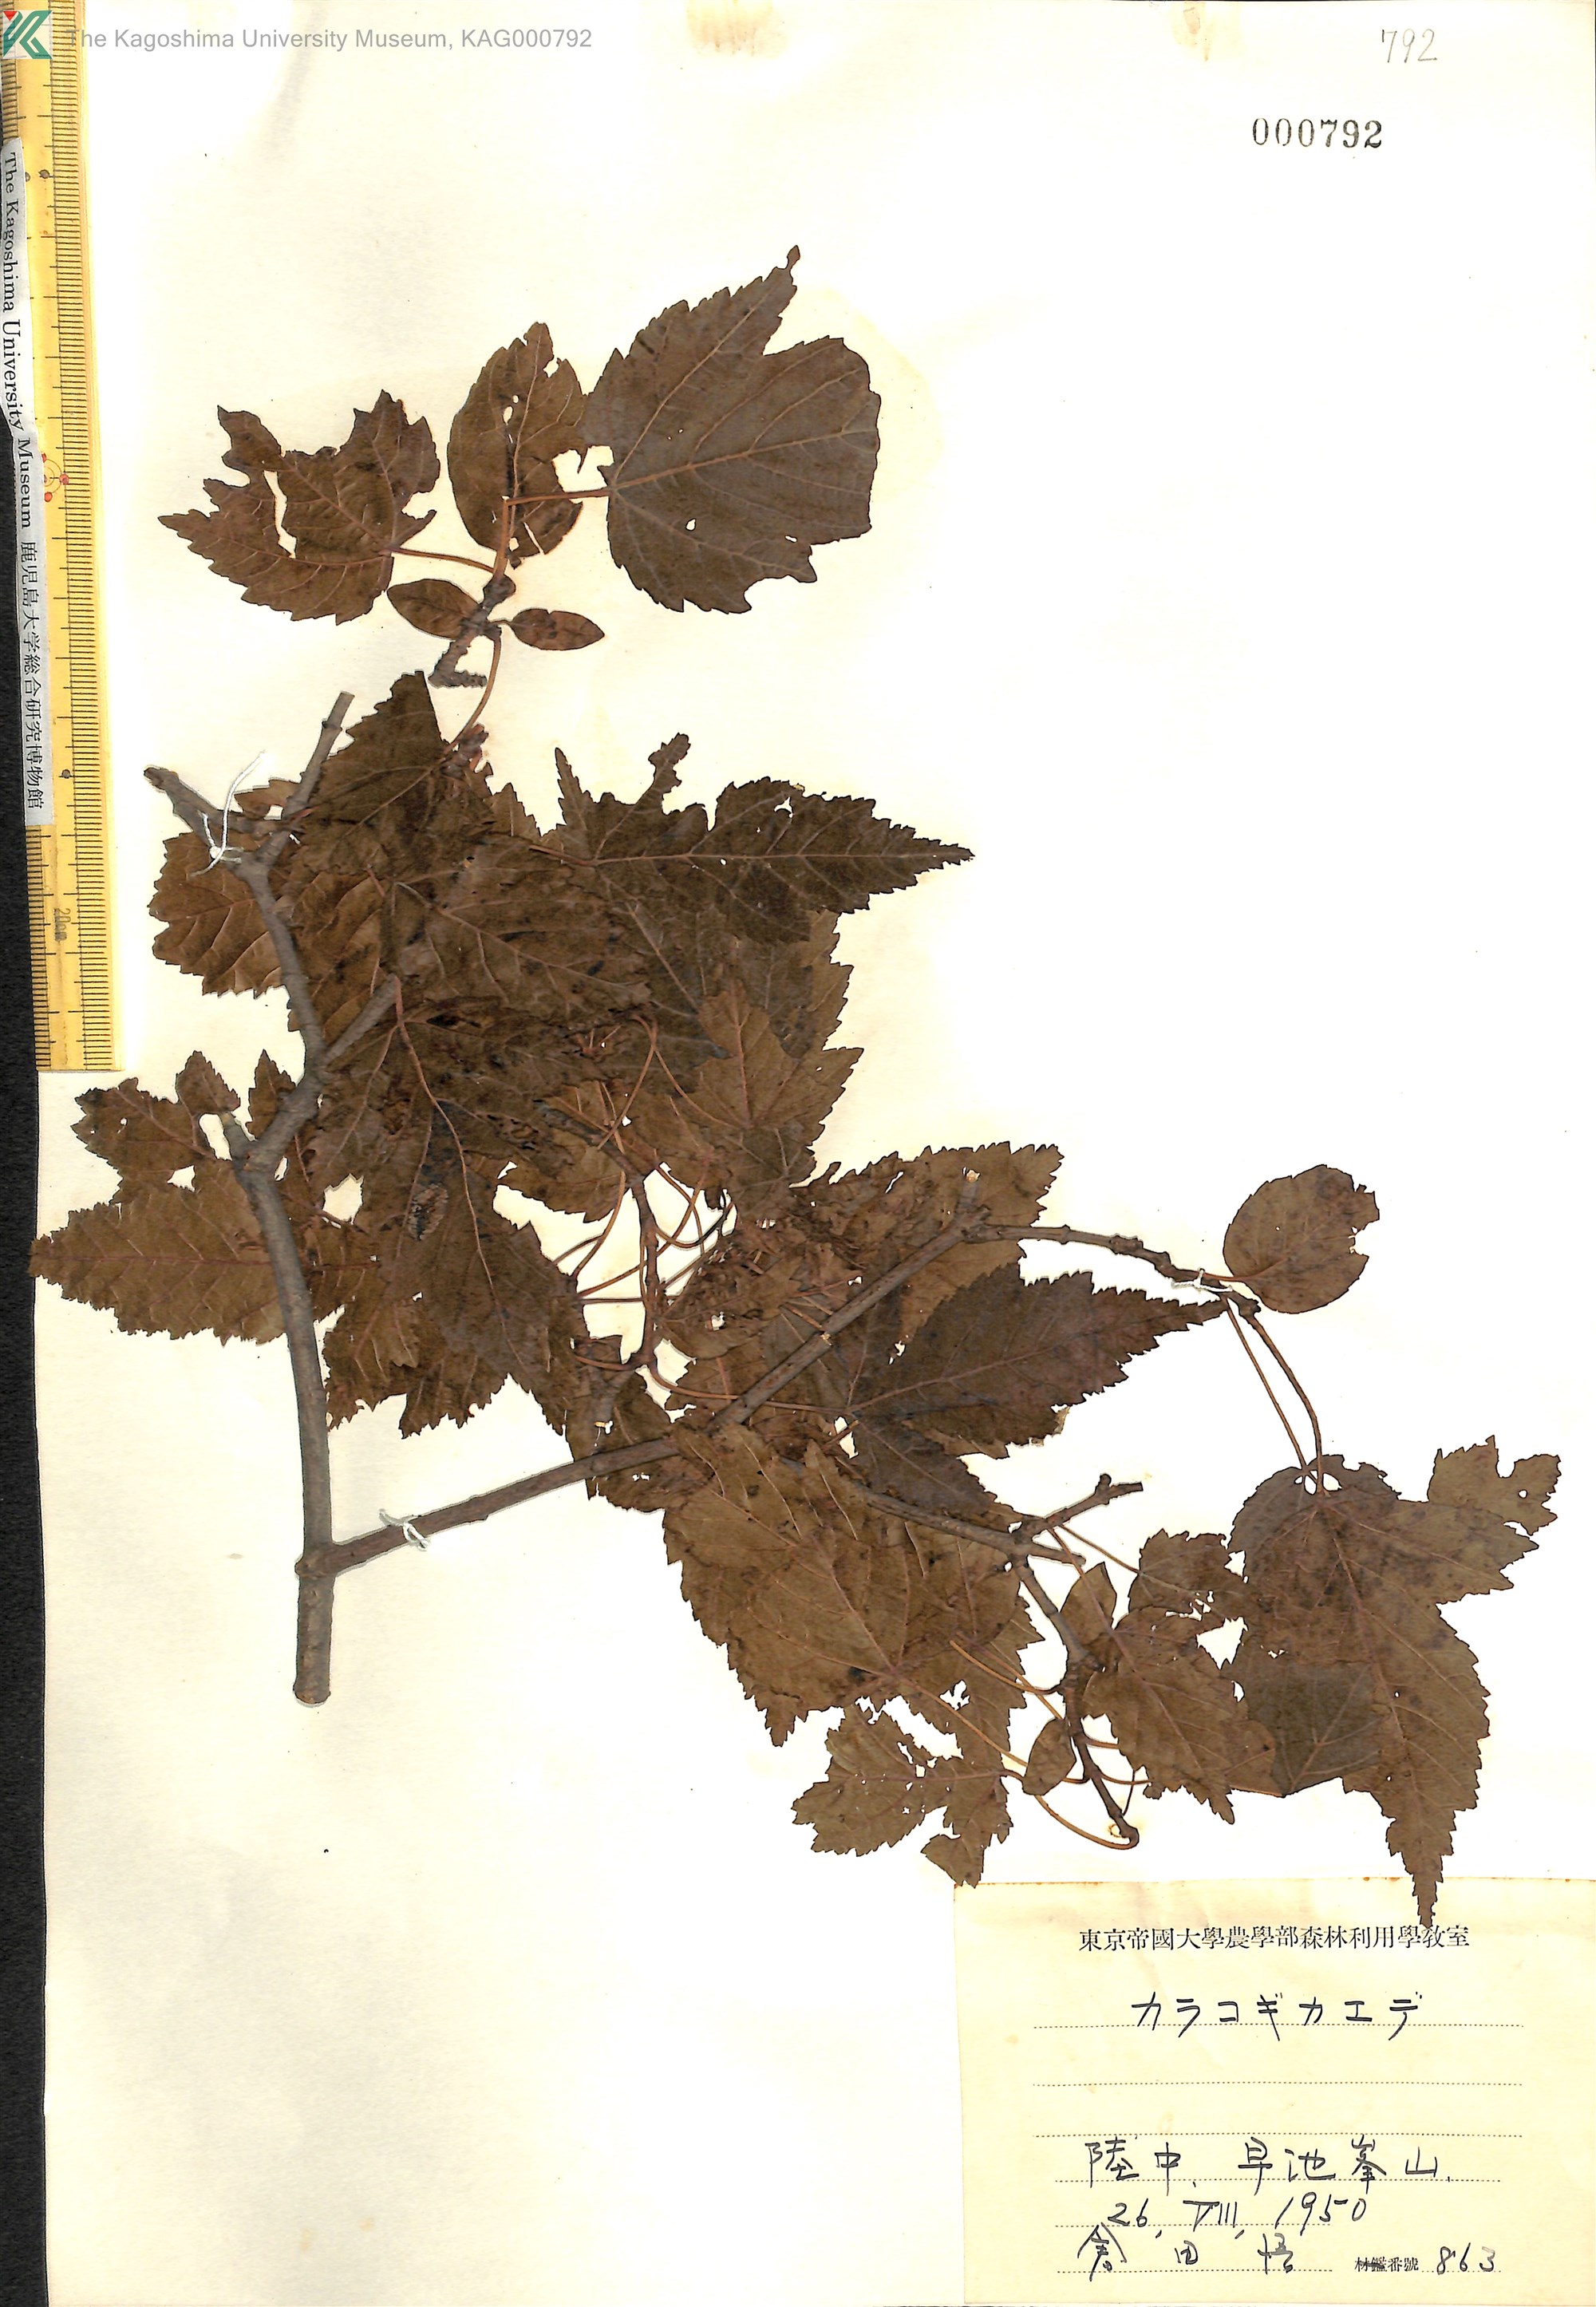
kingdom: Plantae
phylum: Tracheophyta
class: Magnoliopsida
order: Sapindales
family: Sapindaceae
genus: Acer
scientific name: Acer tataricum
